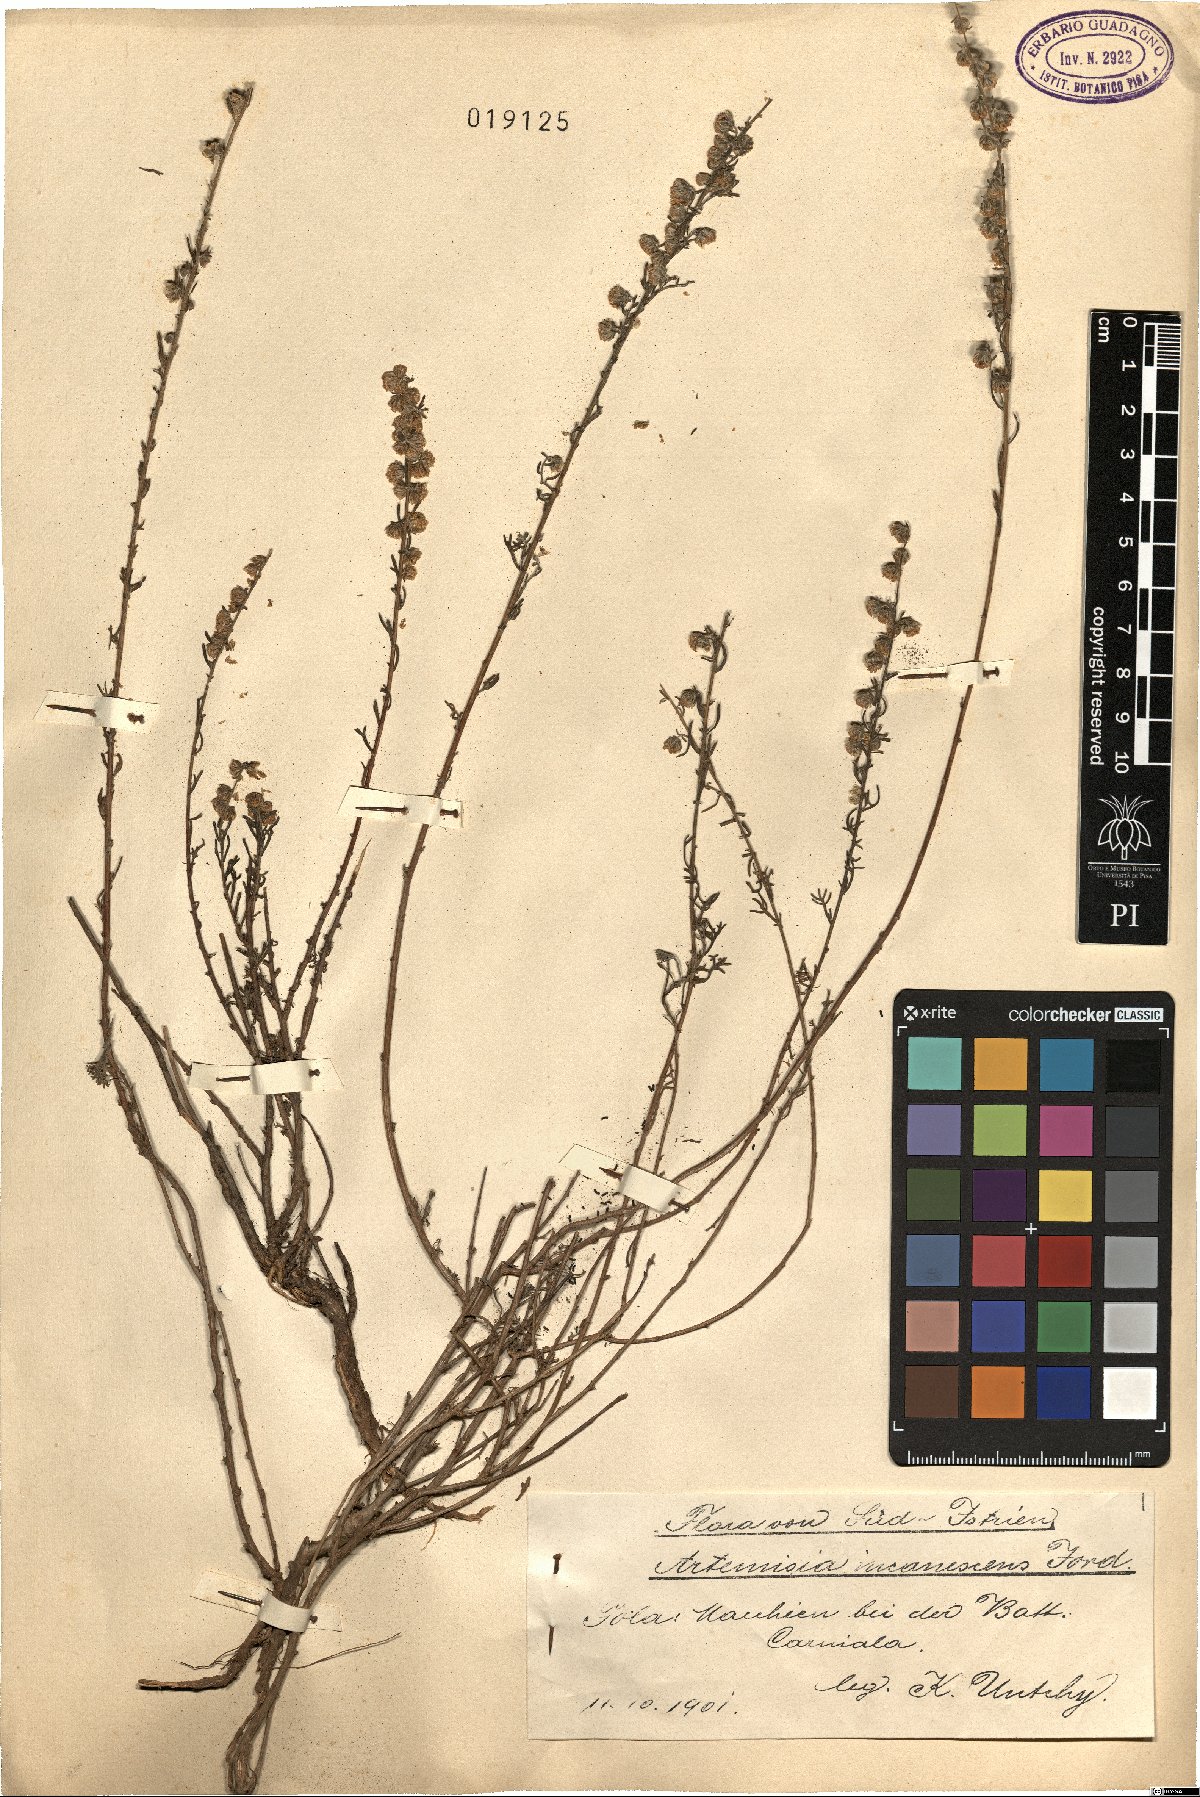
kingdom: Plantae
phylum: Tracheophyta
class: Magnoliopsida
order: Asterales
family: Asteraceae
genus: Artemisia
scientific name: Artemisia alba
